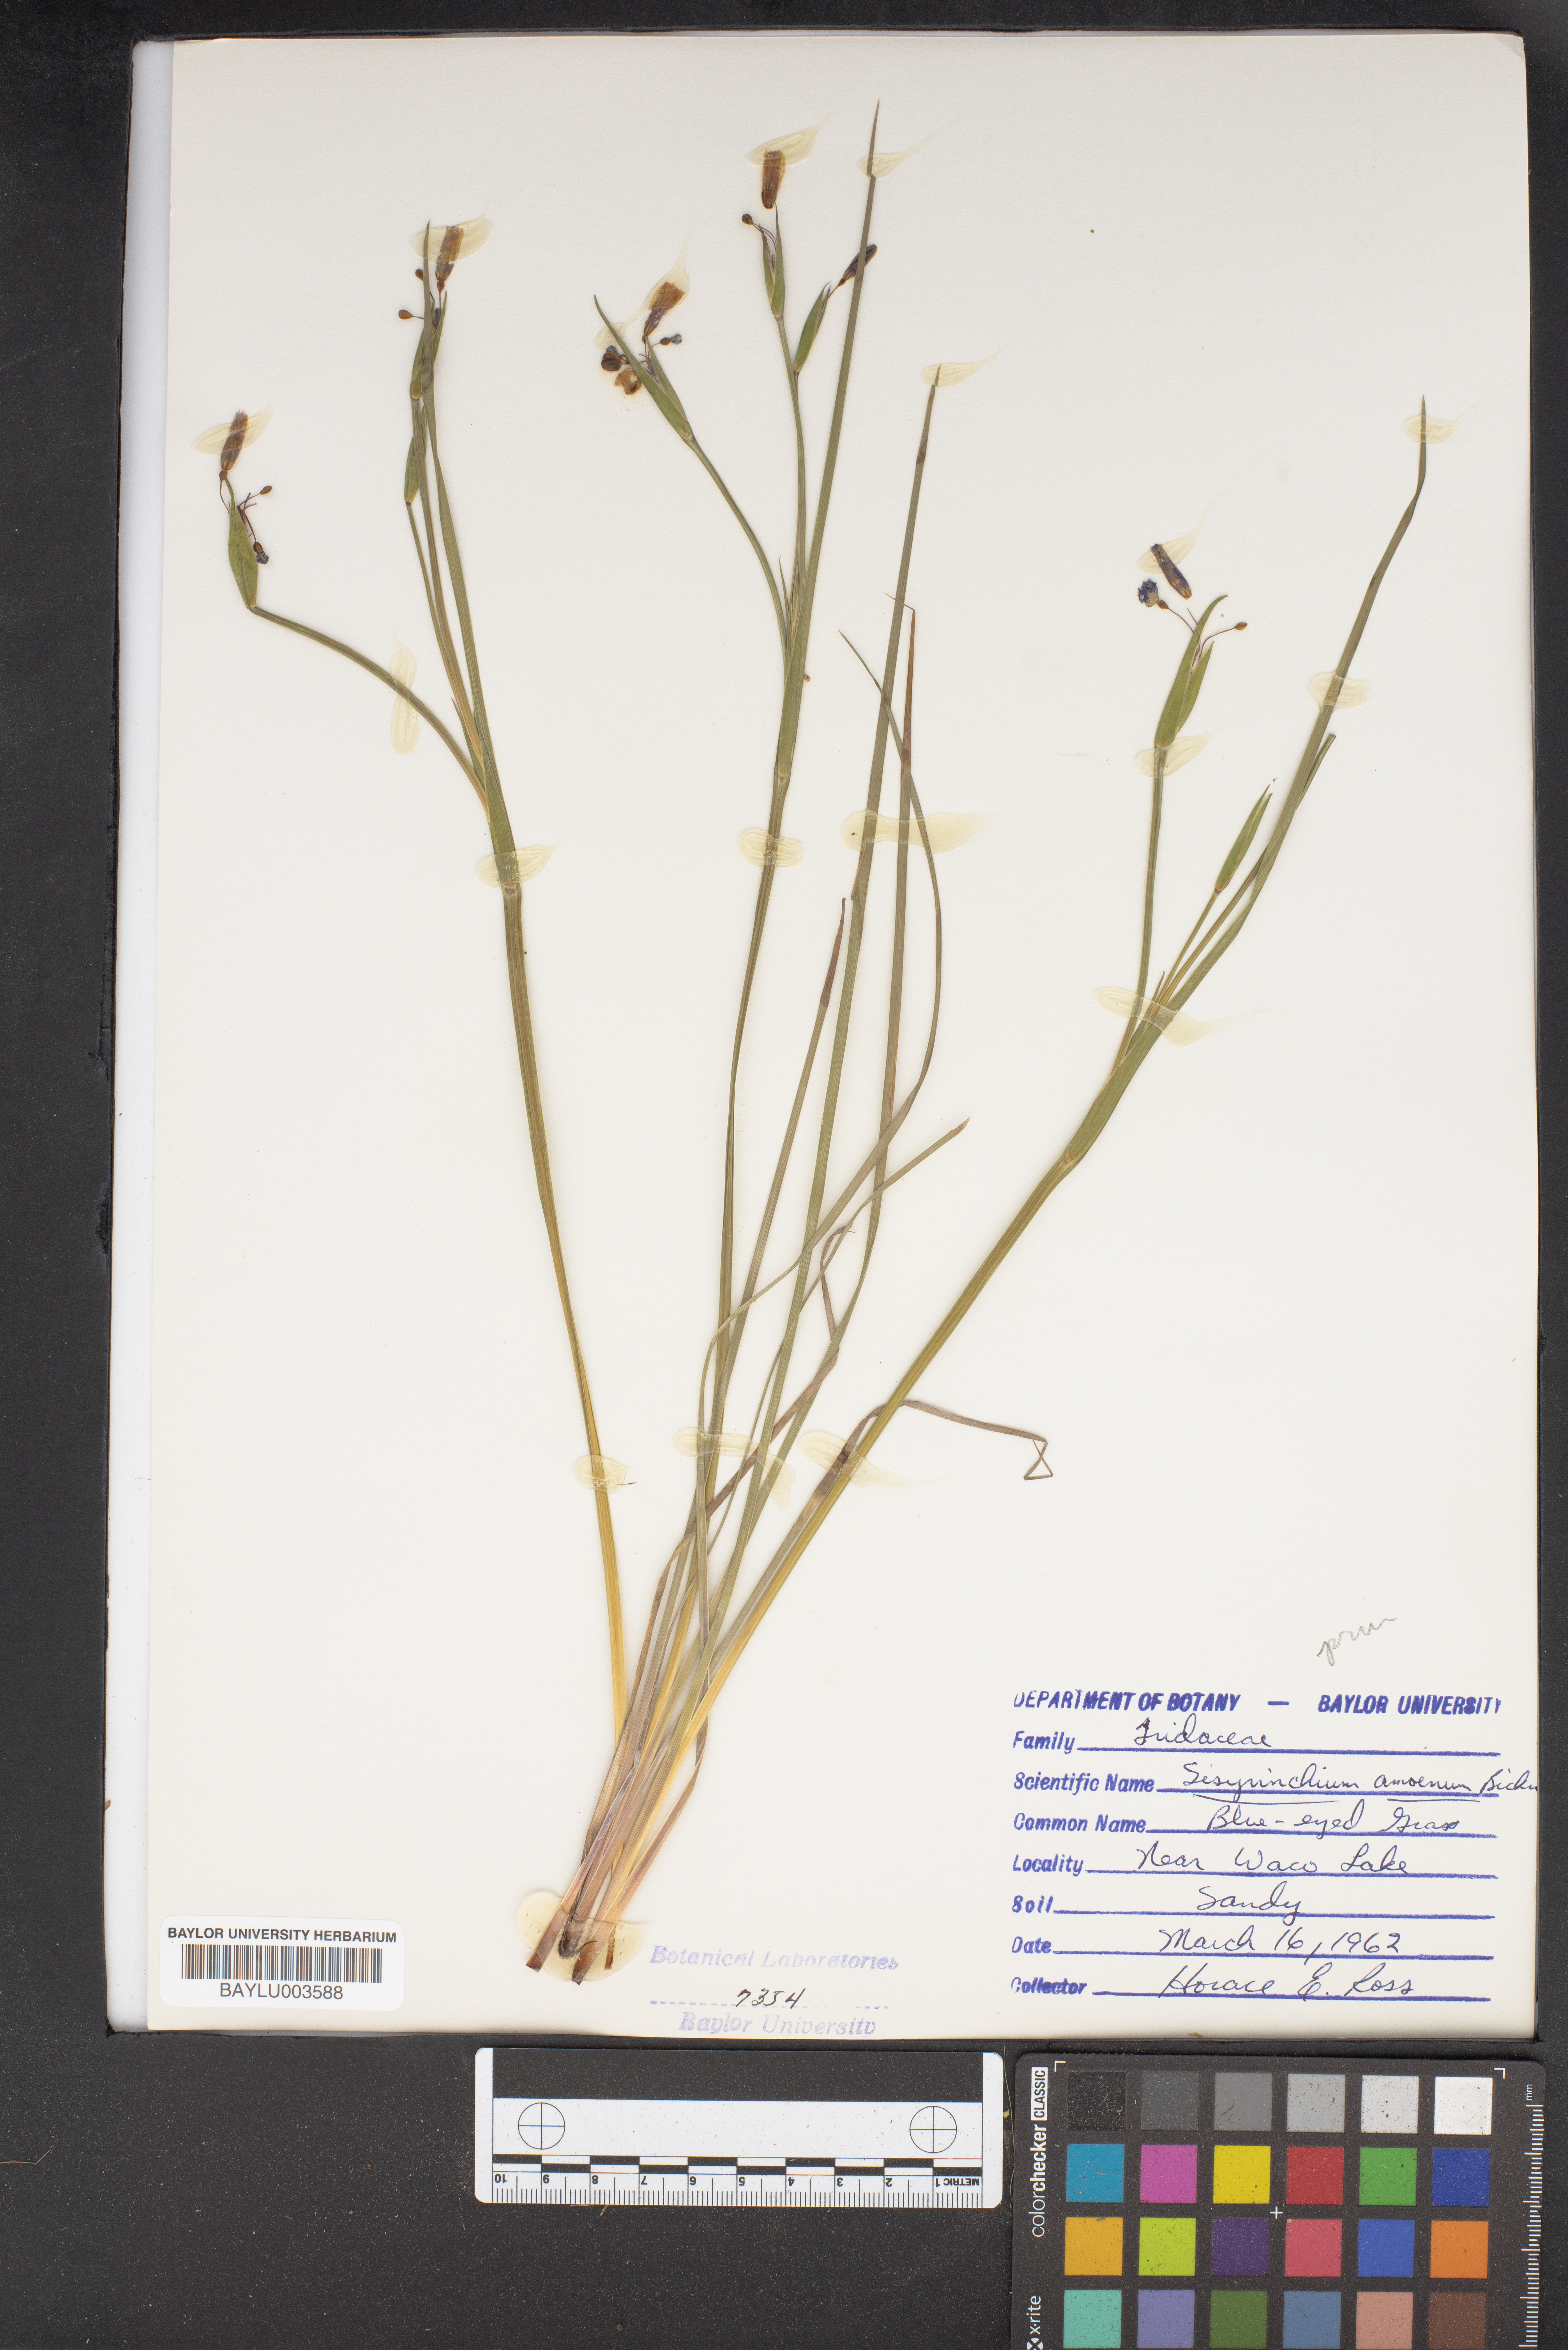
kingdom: Plantae
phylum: Tracheophyta
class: Liliopsida
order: Asparagales
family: Iridaceae
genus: Sisyrinchium
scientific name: Sisyrinchium ensigerum
